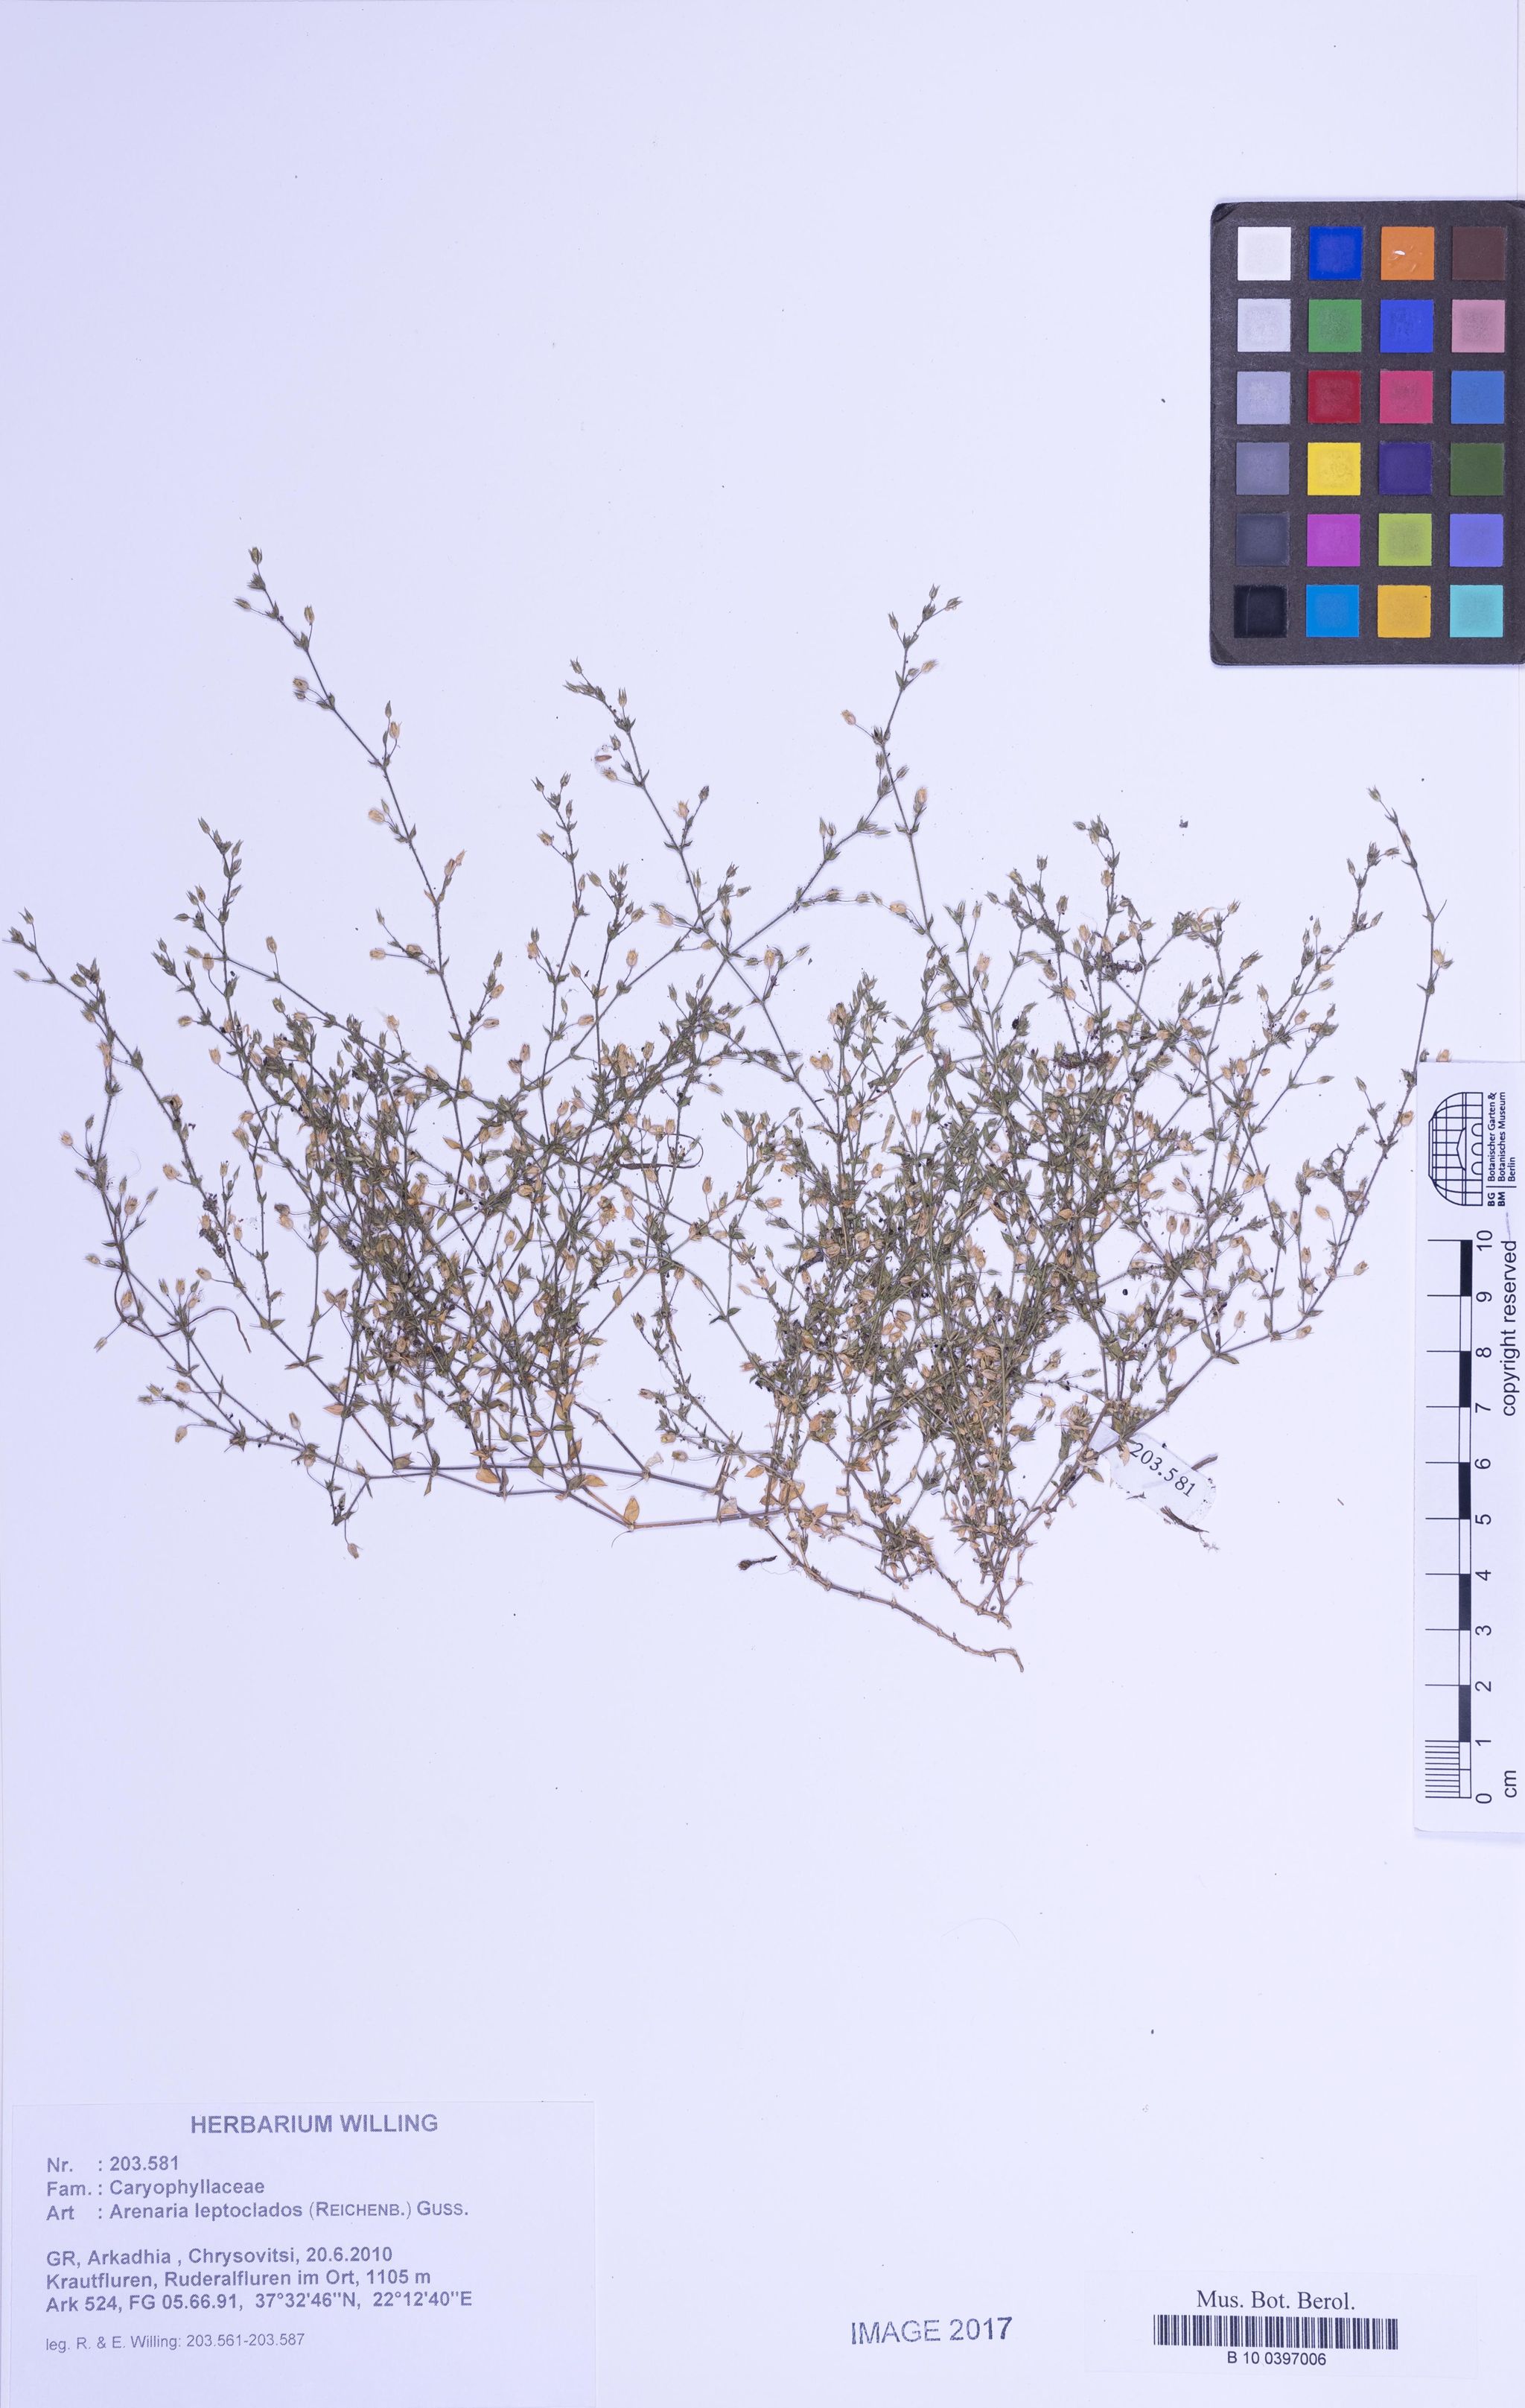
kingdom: Plantae
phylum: Tracheophyta
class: Magnoliopsida
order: Caryophyllales
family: Caryophyllaceae
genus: Arenaria
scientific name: Arenaria leptoclados
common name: Thyme-leaved sandwort
